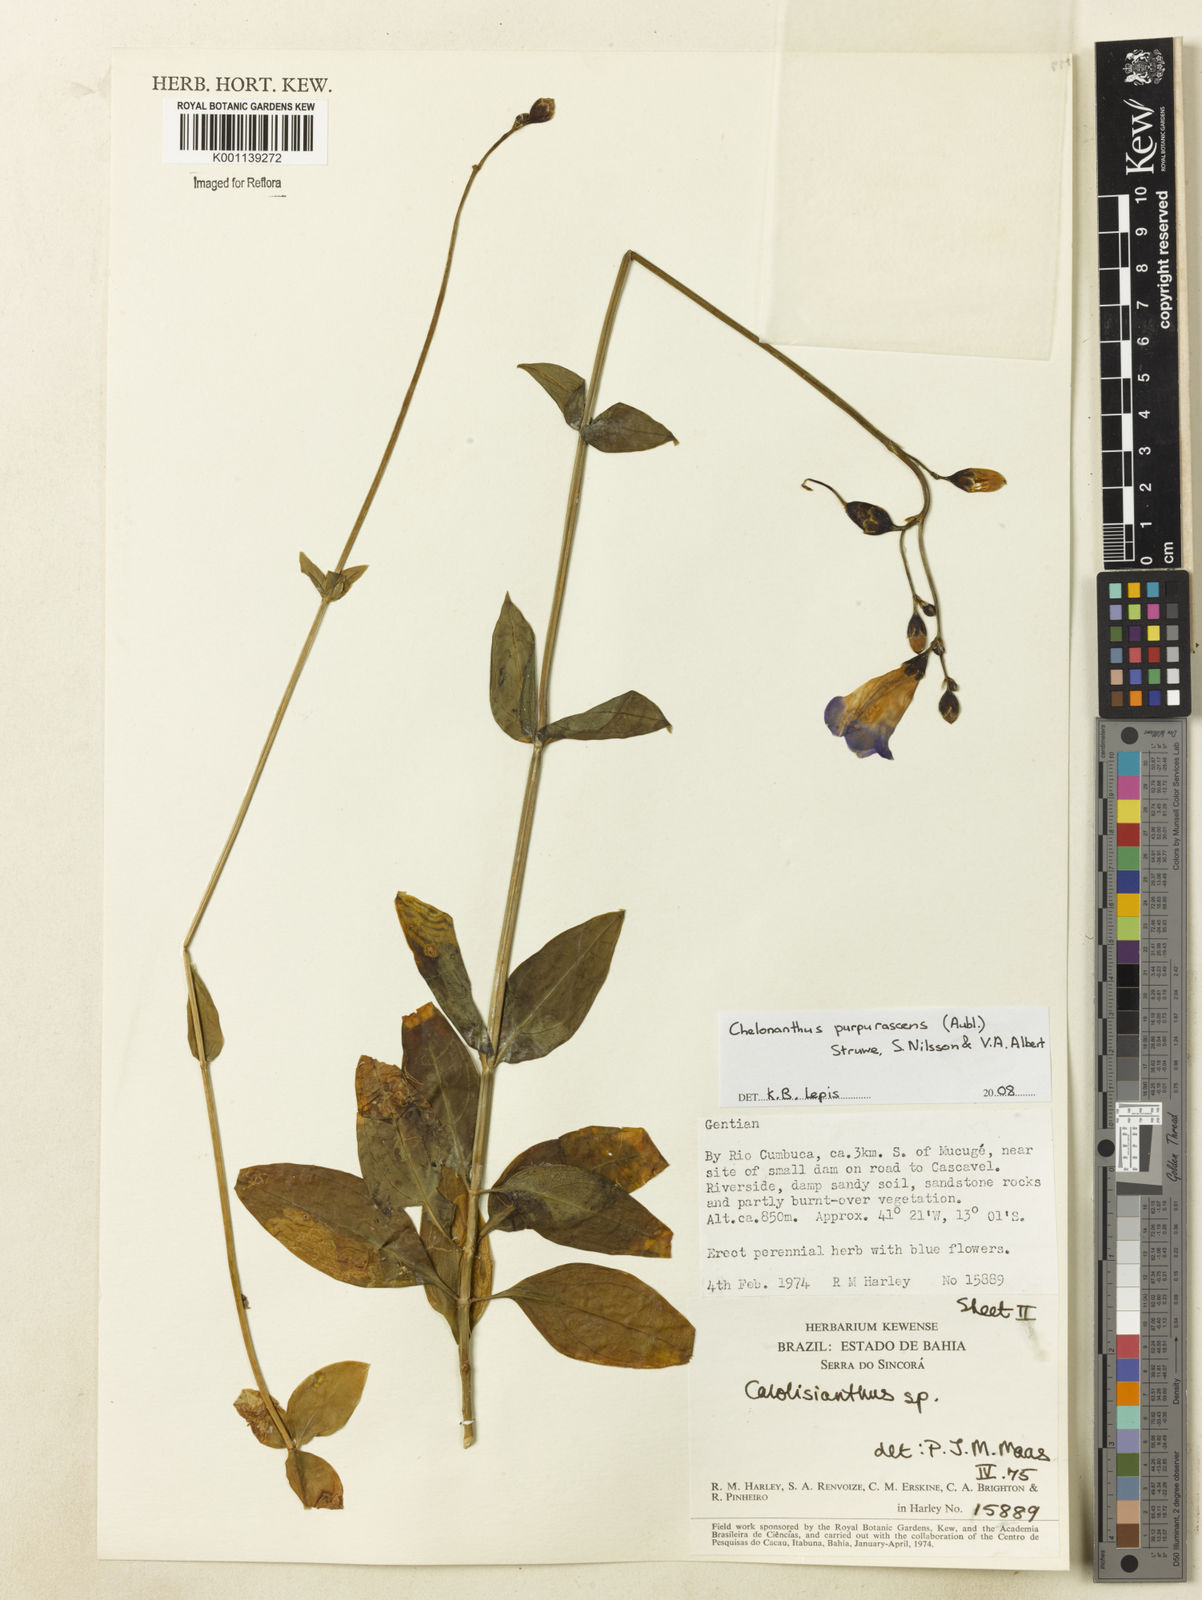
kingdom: Plantae
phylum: Tracheophyta
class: Magnoliopsida
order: Gentianales
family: Gentianaceae
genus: Chelonanthus
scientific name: Chelonanthus purpurascens
